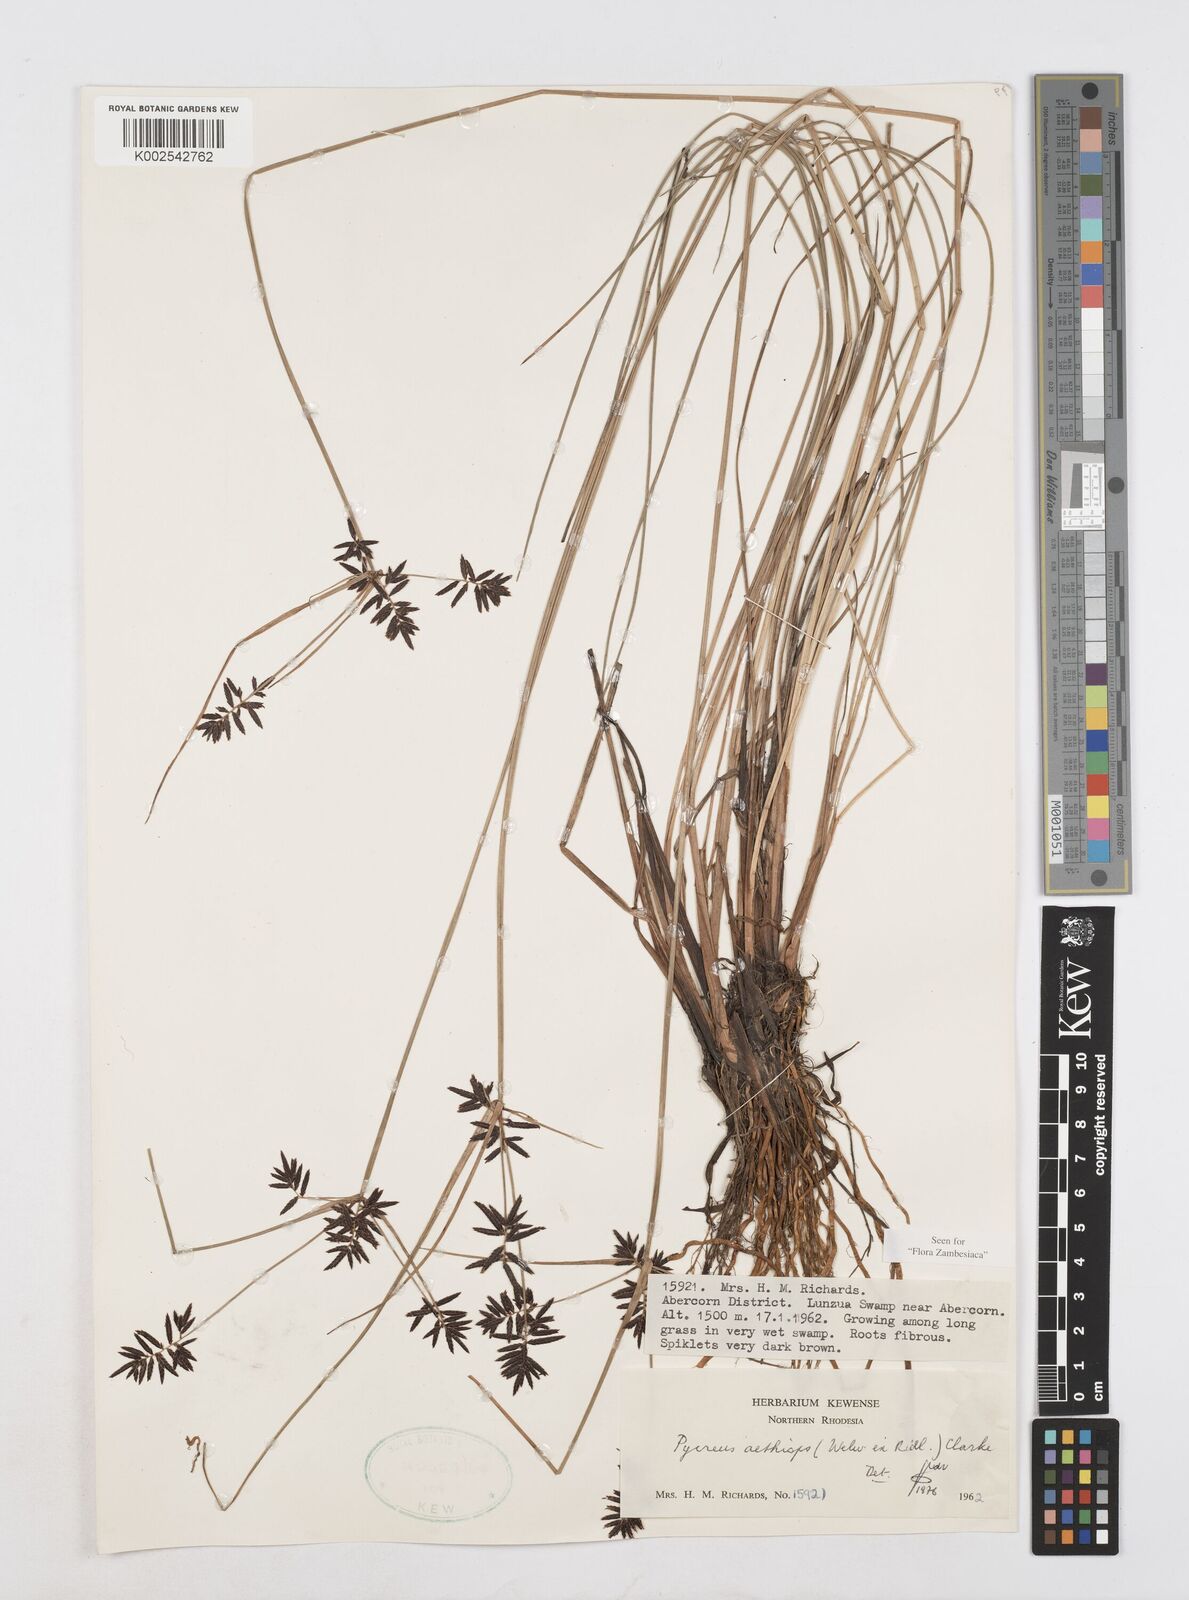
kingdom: Plantae
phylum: Tracheophyta
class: Liliopsida
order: Poales
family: Cyperaceae
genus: Cyperus
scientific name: Cyperus aethiops
